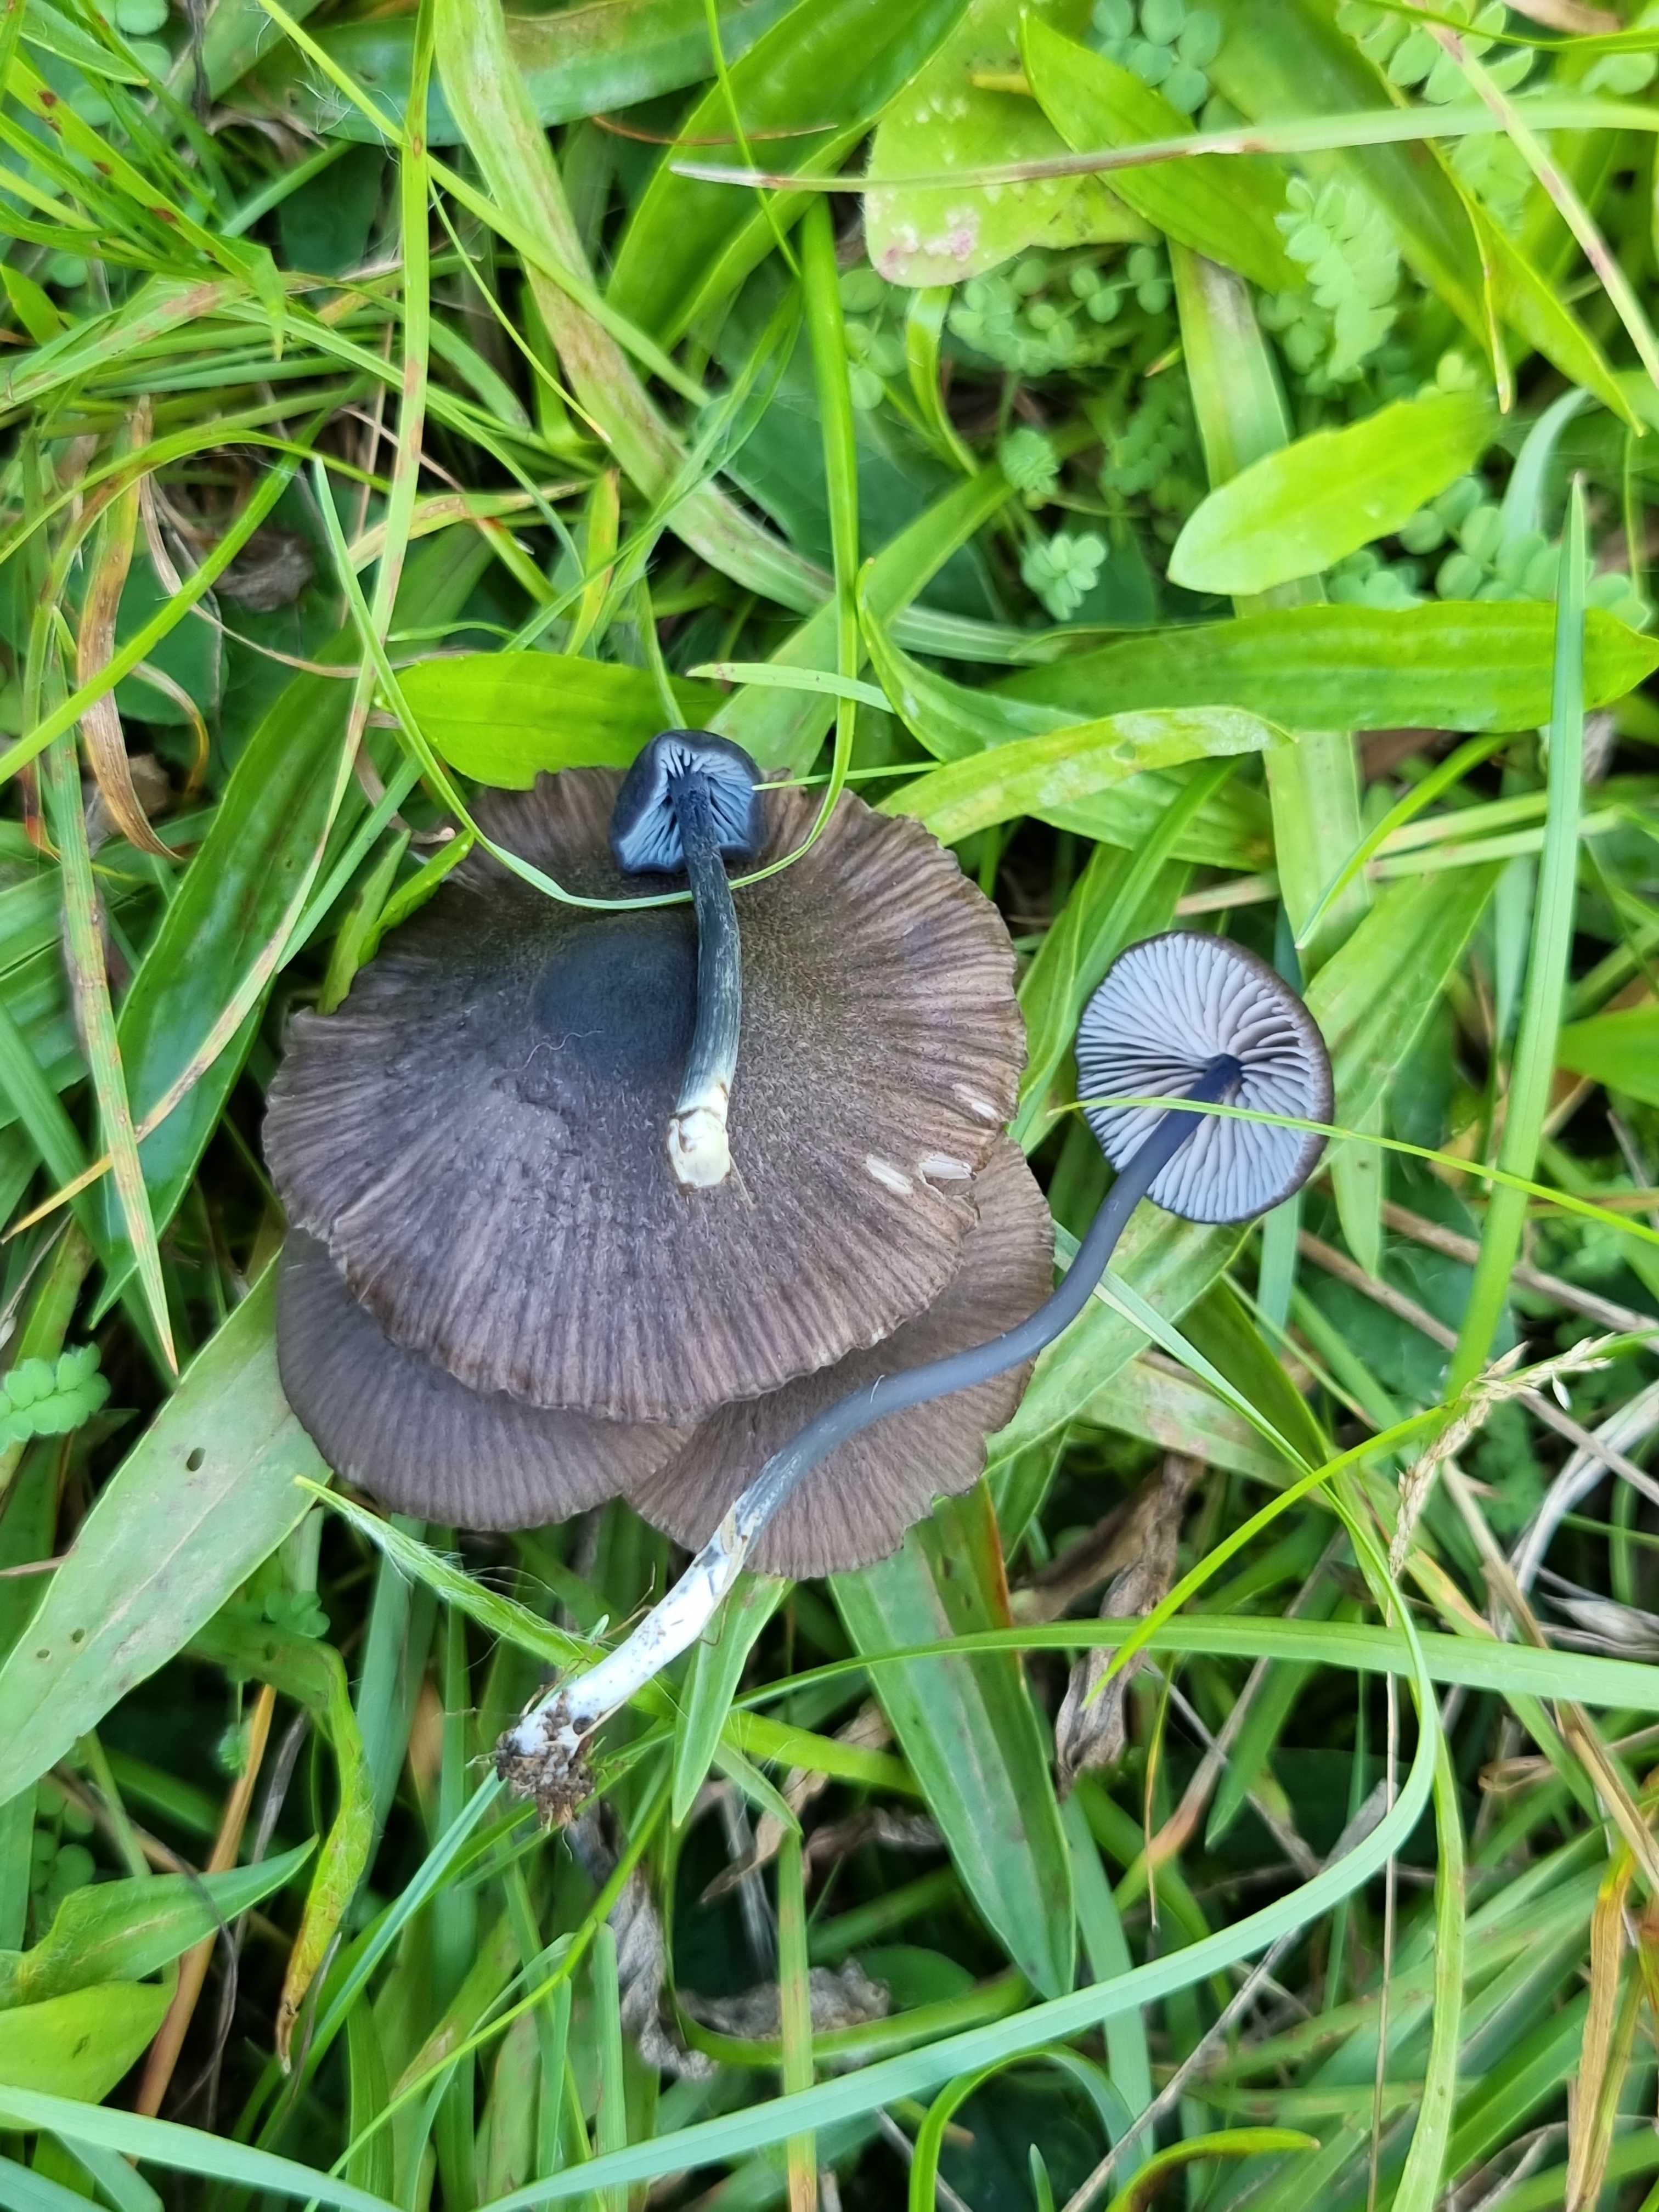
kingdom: Fungi
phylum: Basidiomycota
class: Agaricomycetes
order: Agaricales
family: Entolomataceae
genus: Entoloma
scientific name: Entoloma chalybeum
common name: blåbladet rødblad
